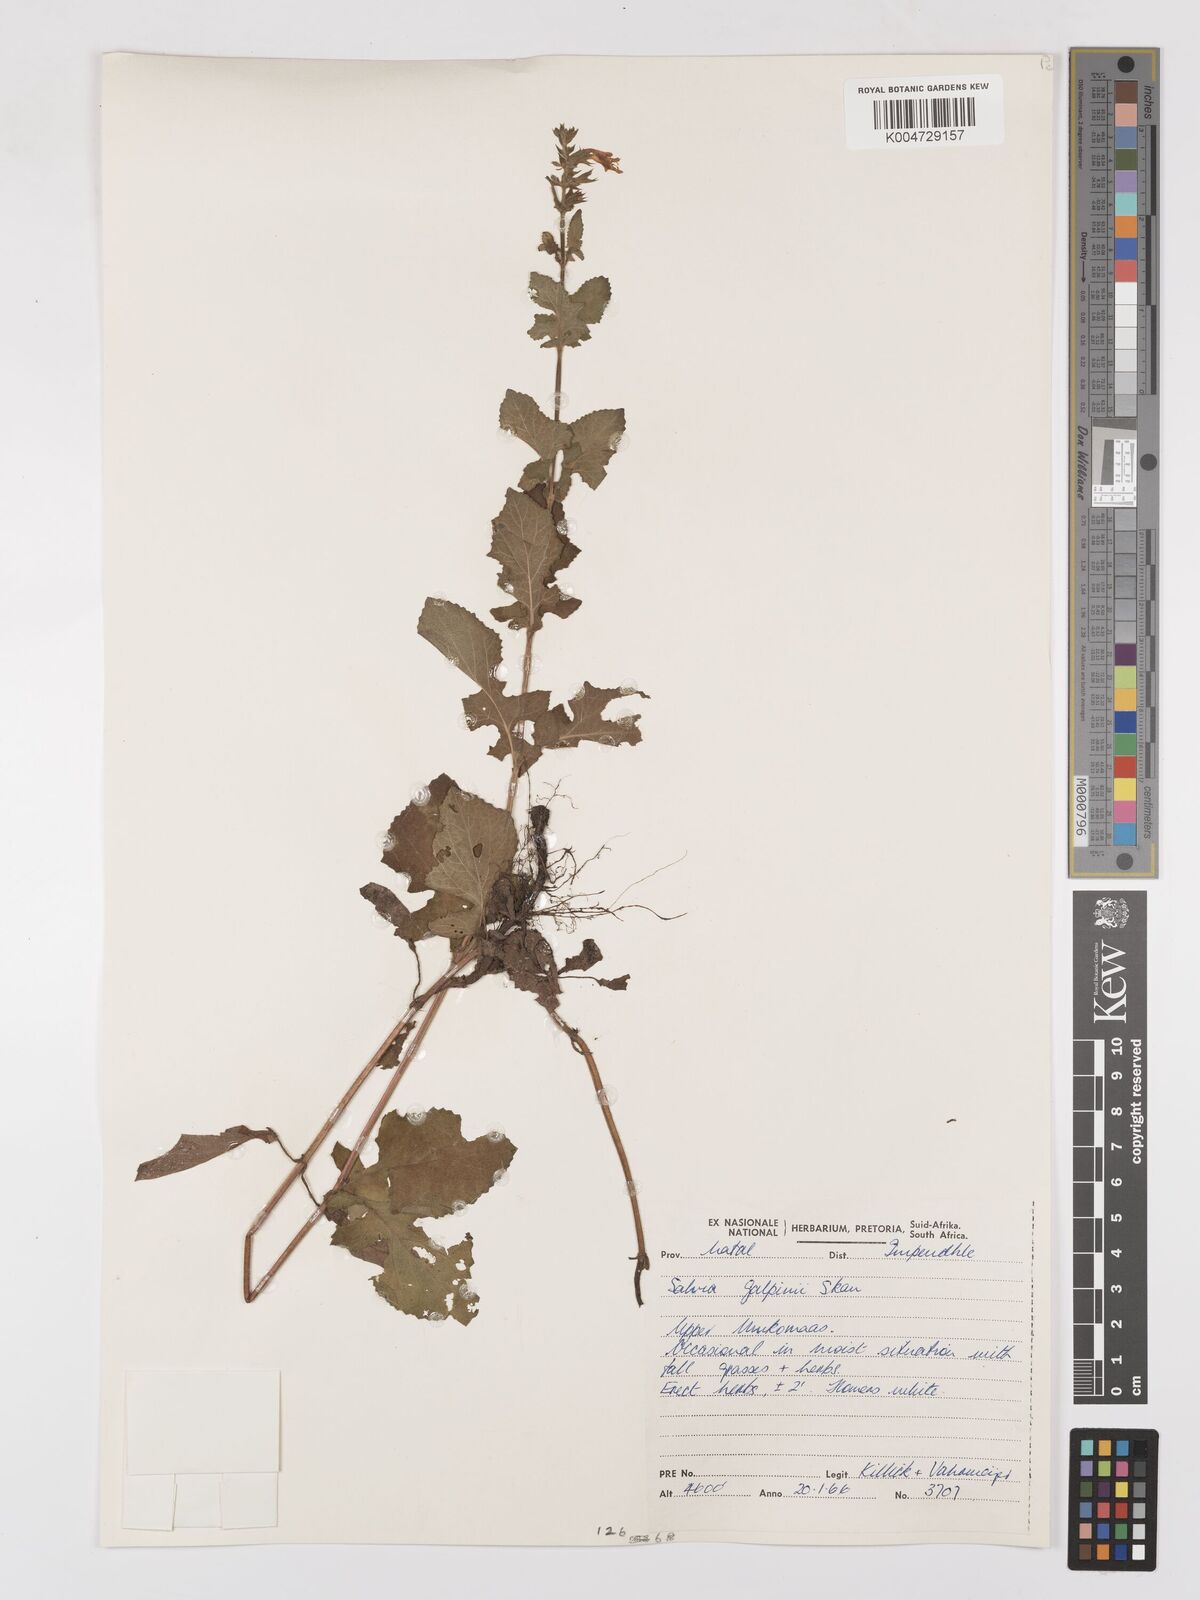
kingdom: Plantae
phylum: Tracheophyta
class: Magnoliopsida
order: Lamiales
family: Lamiaceae
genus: Salvia
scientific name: Salvia aurita
